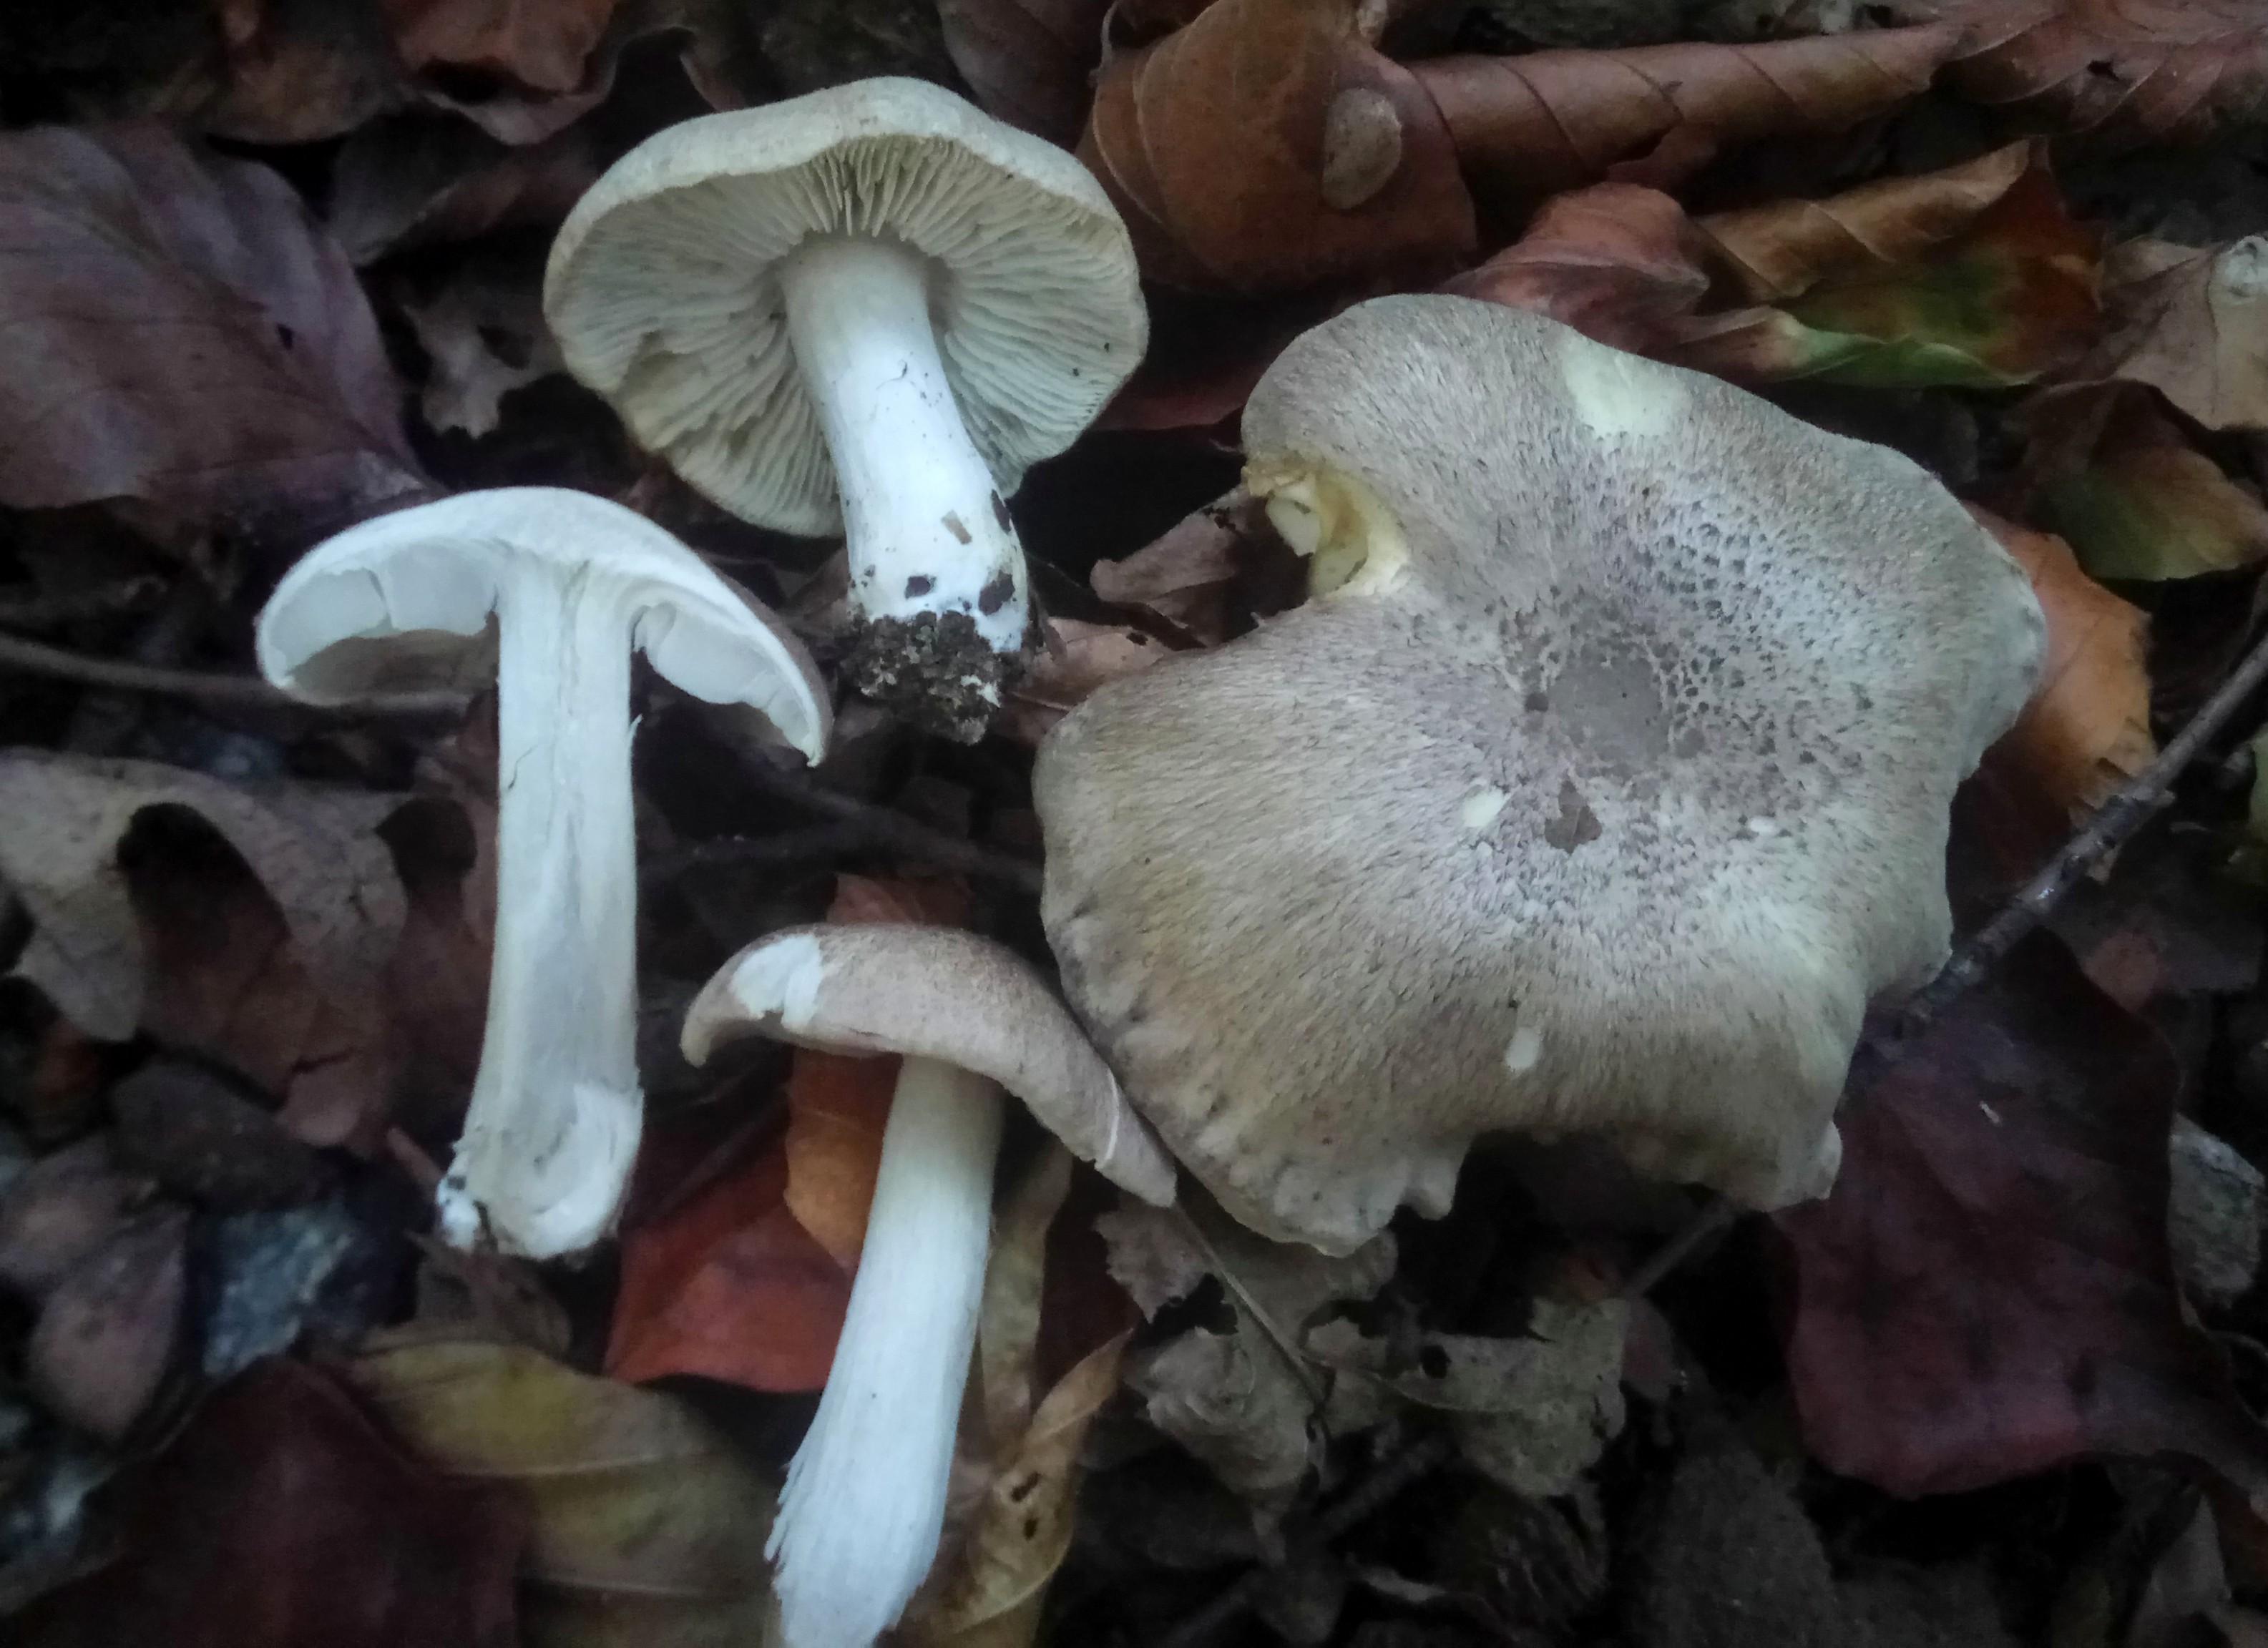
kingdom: Fungi
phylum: Basidiomycota
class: Agaricomycetes
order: Agaricales
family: Tricholomataceae
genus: Tricholoma
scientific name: Tricholoma scalpturatum
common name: gulplettet ridderhat
